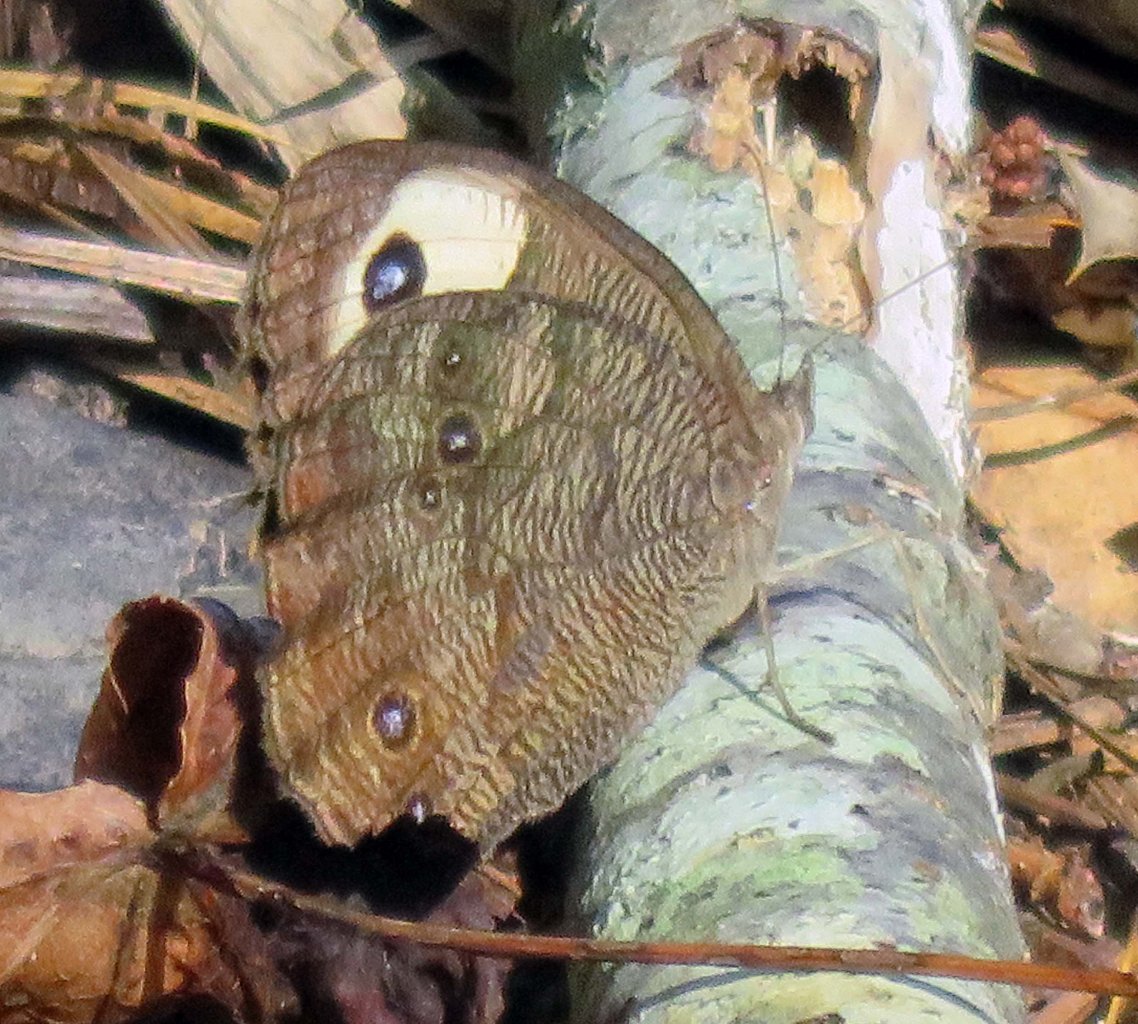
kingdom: Animalia
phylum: Arthropoda
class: Insecta
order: Lepidoptera
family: Nymphalidae
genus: Cercyonis
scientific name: Cercyonis pegala
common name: Common Wood-Nymph
